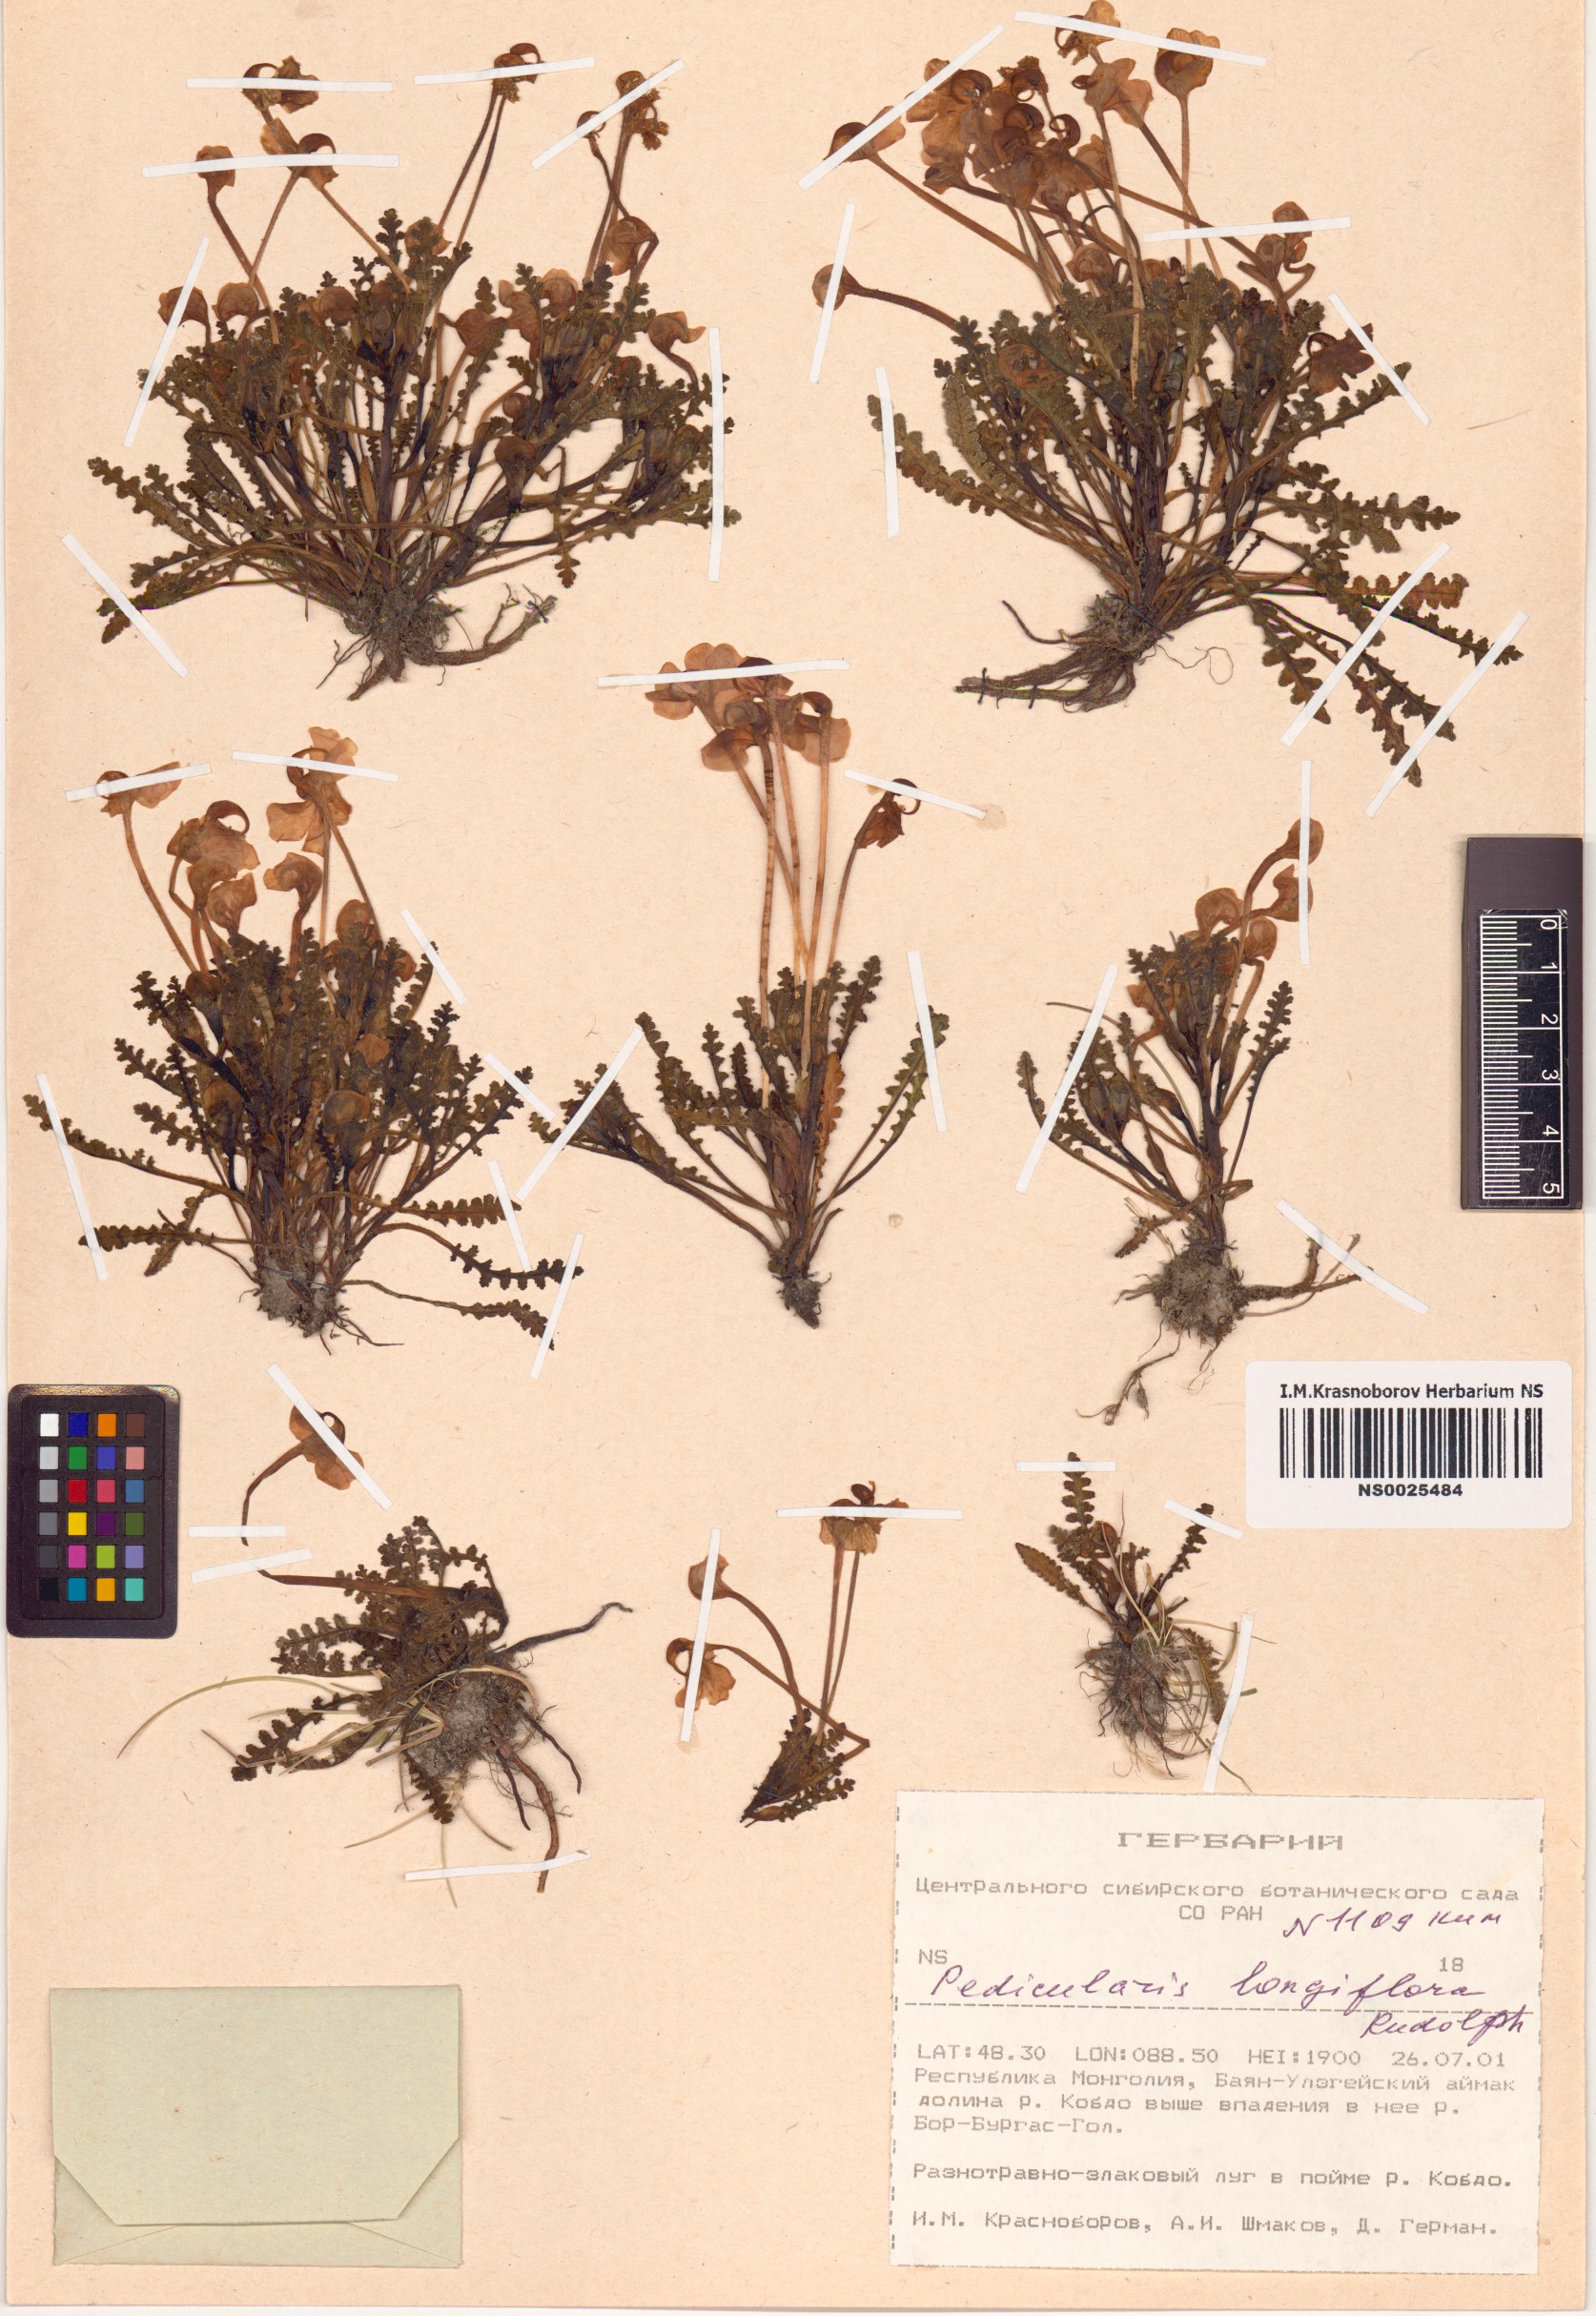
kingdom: Plantae
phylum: Tracheophyta
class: Magnoliopsida
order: Lamiales
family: Orobanchaceae
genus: Pedicularis
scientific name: Pedicularis longiflora
